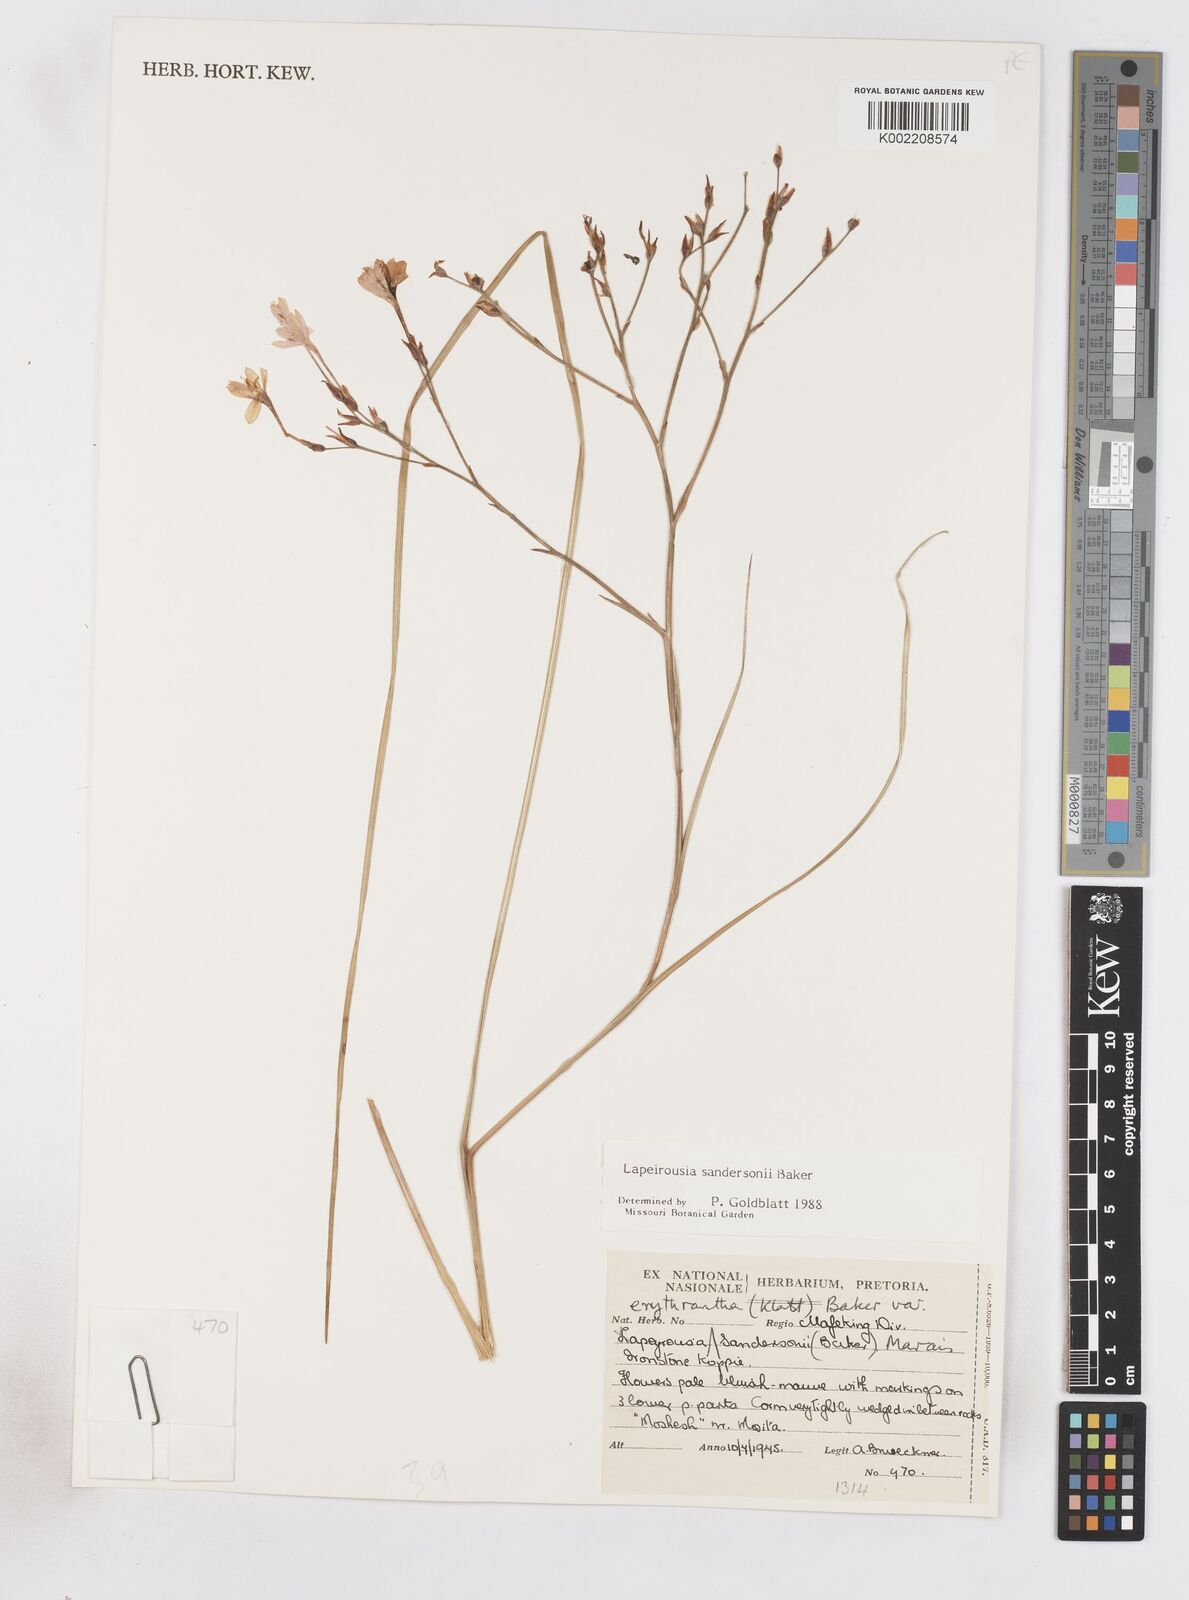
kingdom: Plantae
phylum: Tracheophyta
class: Liliopsida
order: Asparagales
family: Iridaceae
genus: Afrosolen
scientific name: Afrosolen sandersonii
